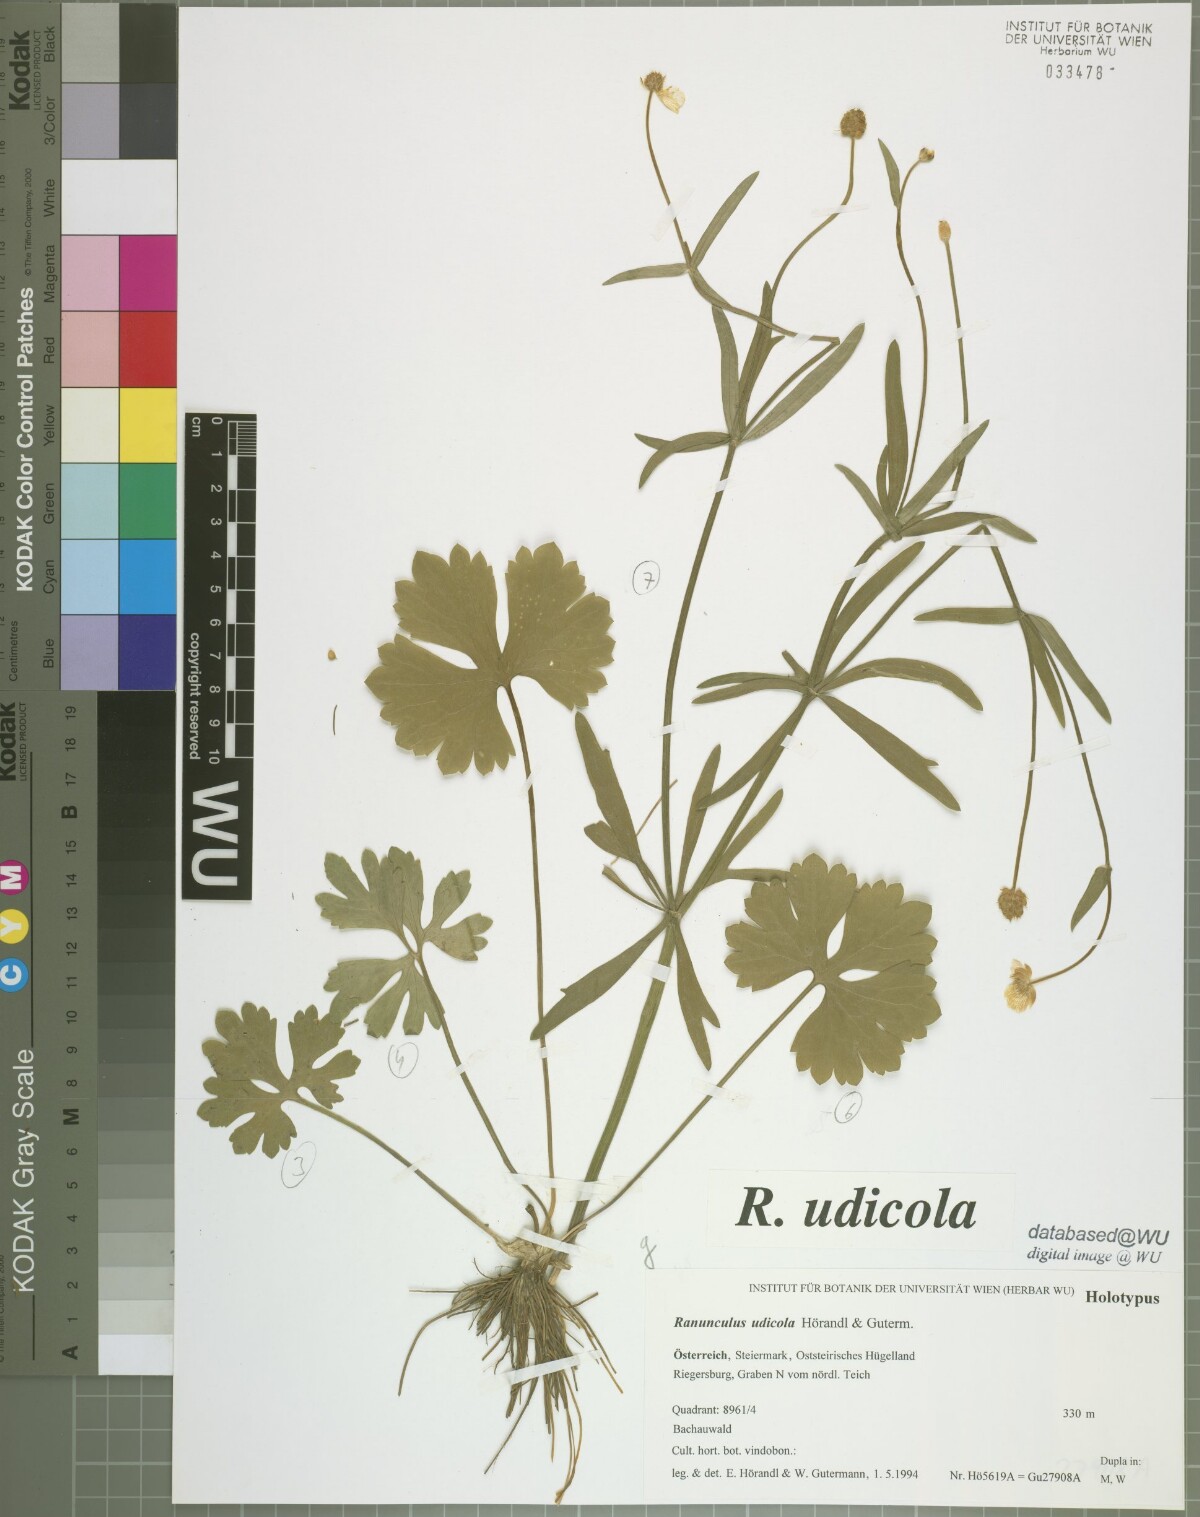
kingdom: Plantae
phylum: Tracheophyta
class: Magnoliopsida
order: Ranunculales
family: Ranunculaceae
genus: Ranunculus
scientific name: Ranunculus udicola
